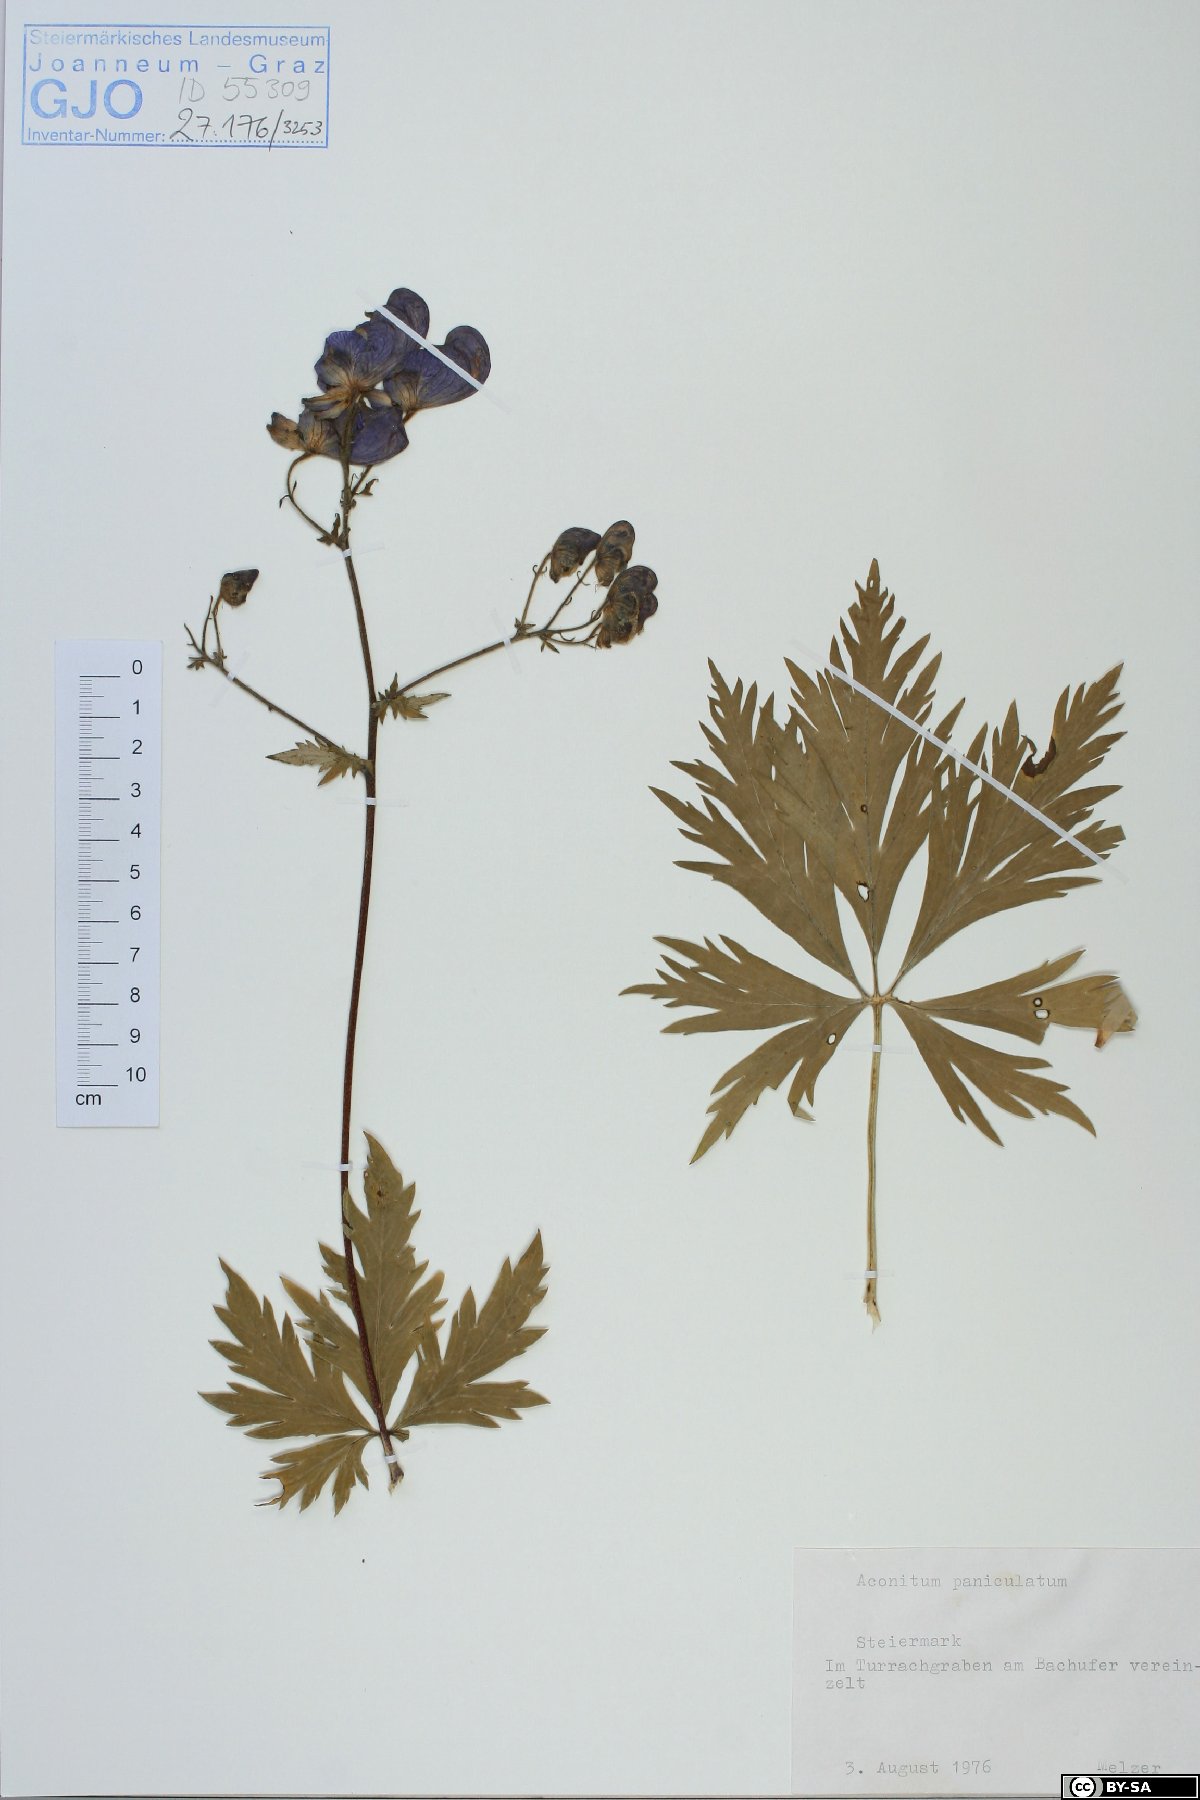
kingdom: Plantae
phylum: Tracheophyta
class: Magnoliopsida
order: Ranunculales
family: Ranunculaceae
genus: Aconitum
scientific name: Aconitum degenii
